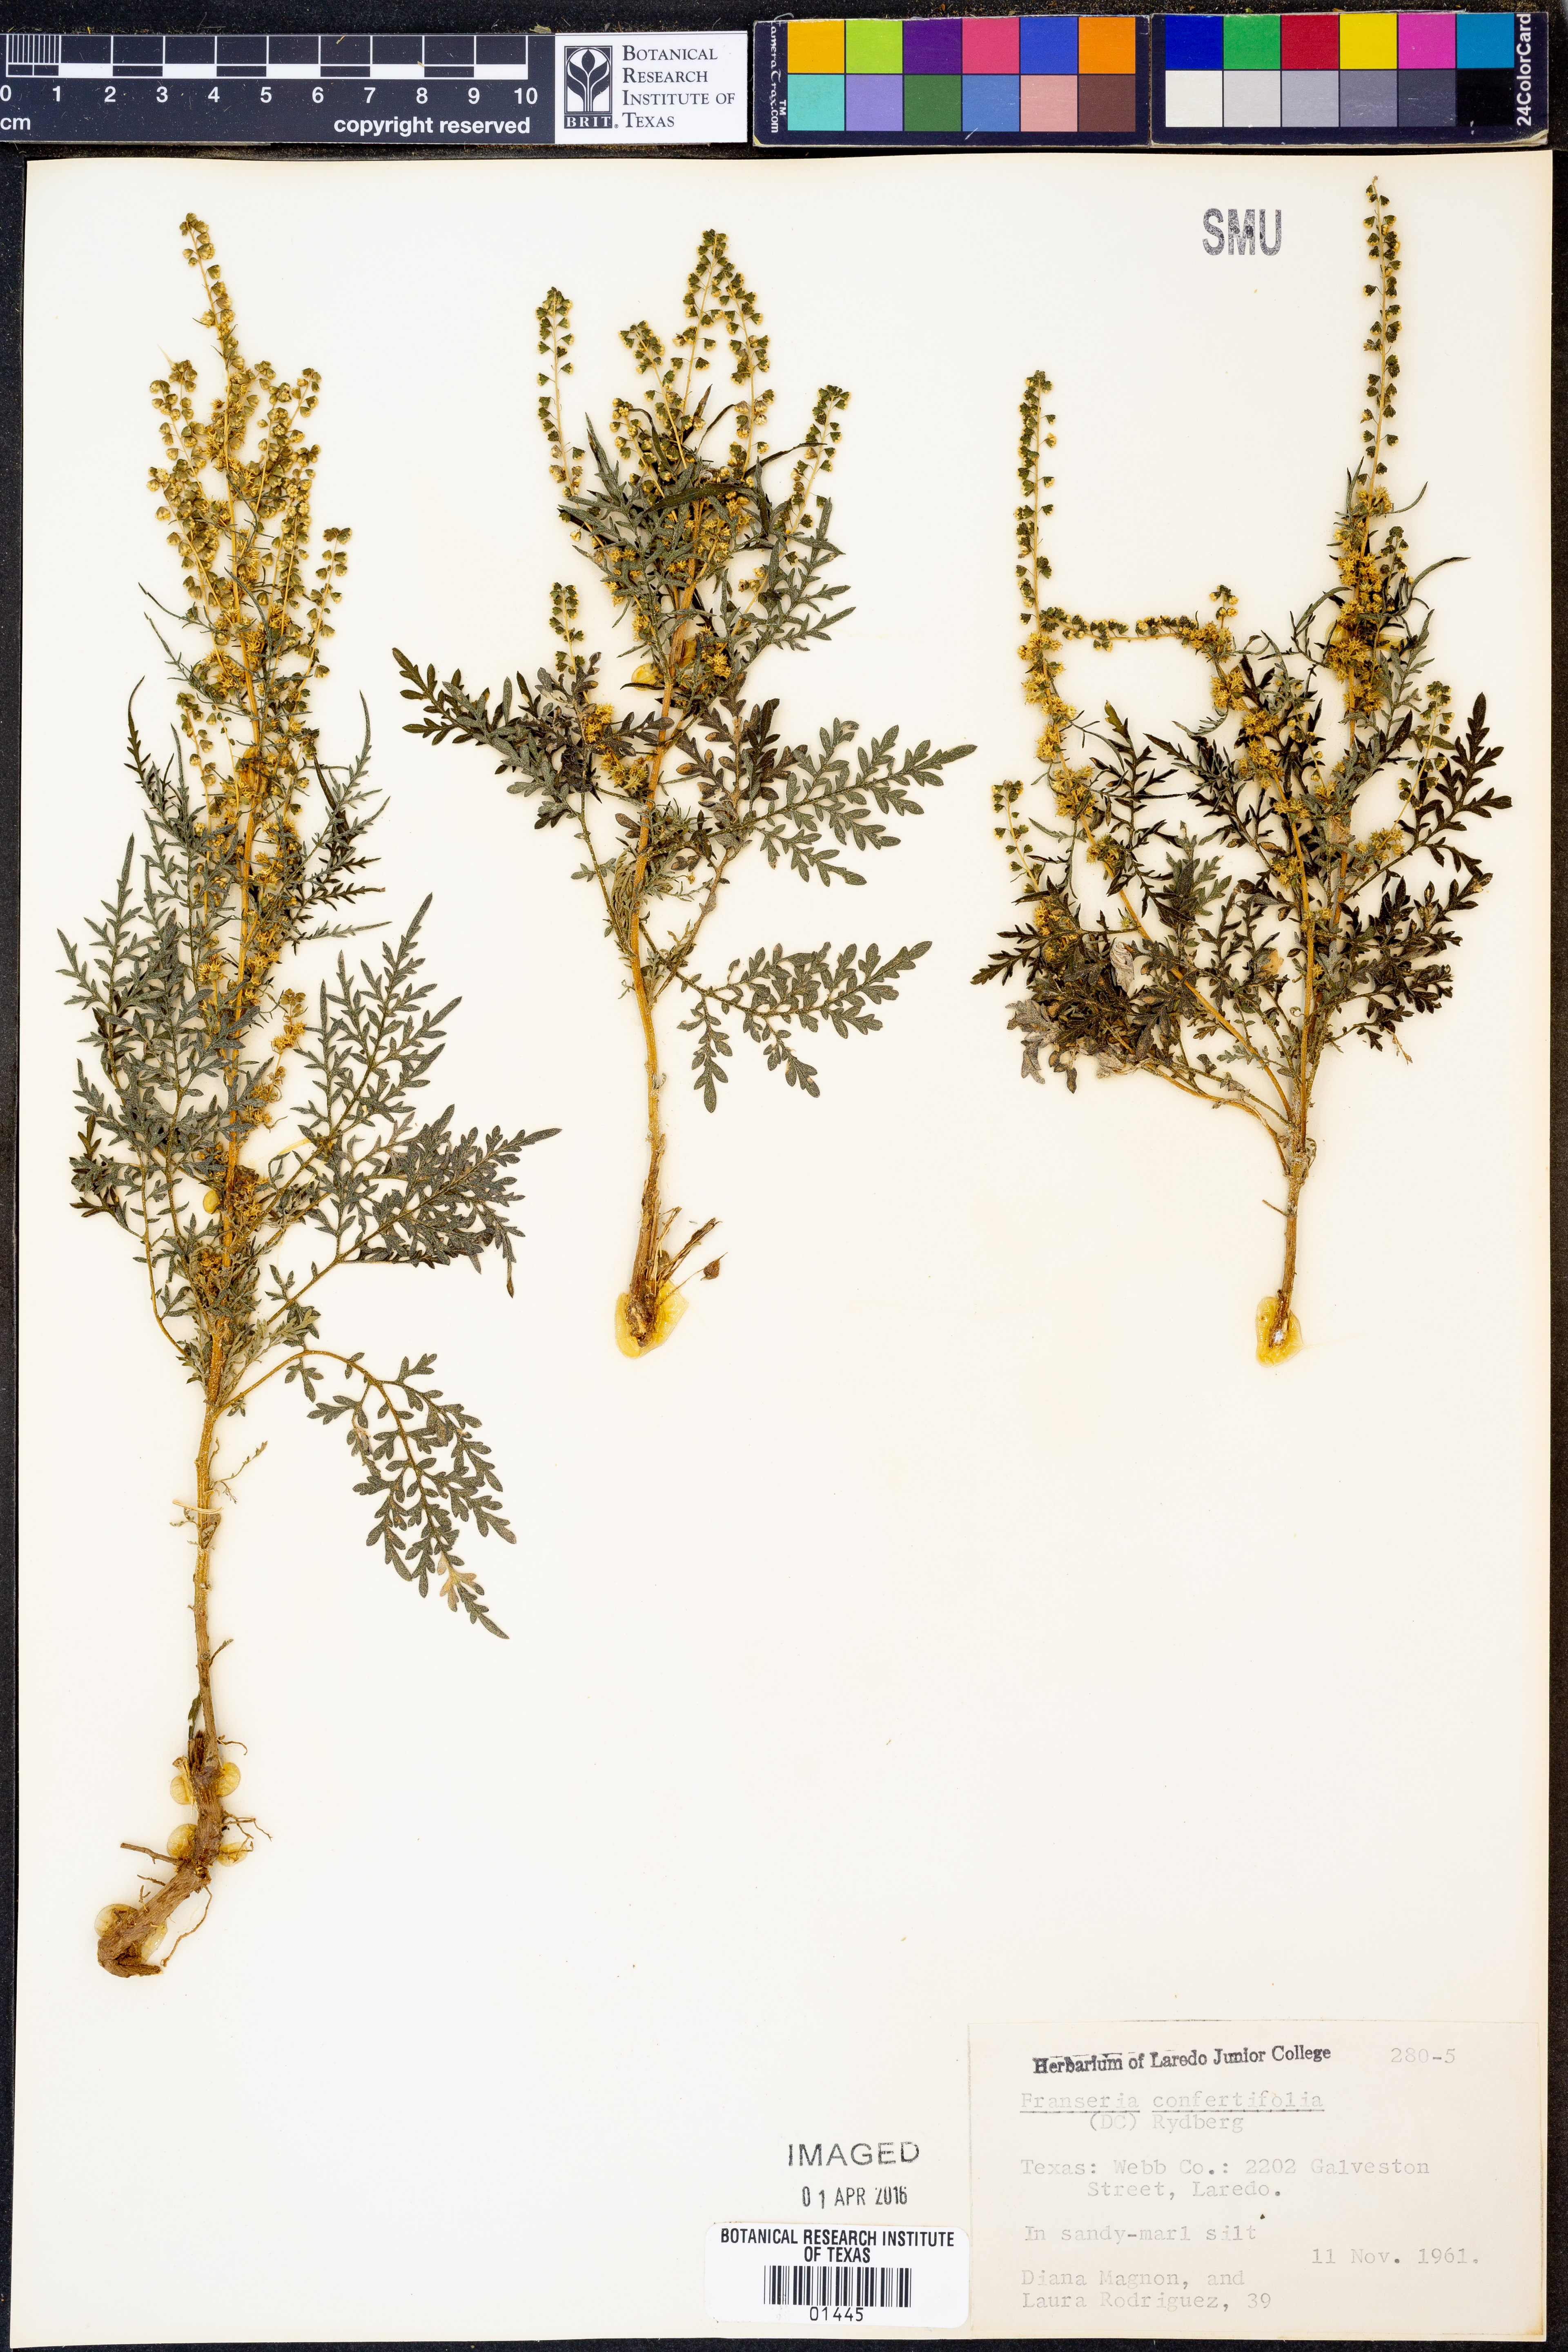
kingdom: Plantae
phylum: Tracheophyta
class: Magnoliopsida
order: Asterales
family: Asteraceae
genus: Ambrosia
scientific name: Ambrosia confertiflora
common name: Bur ragweed
